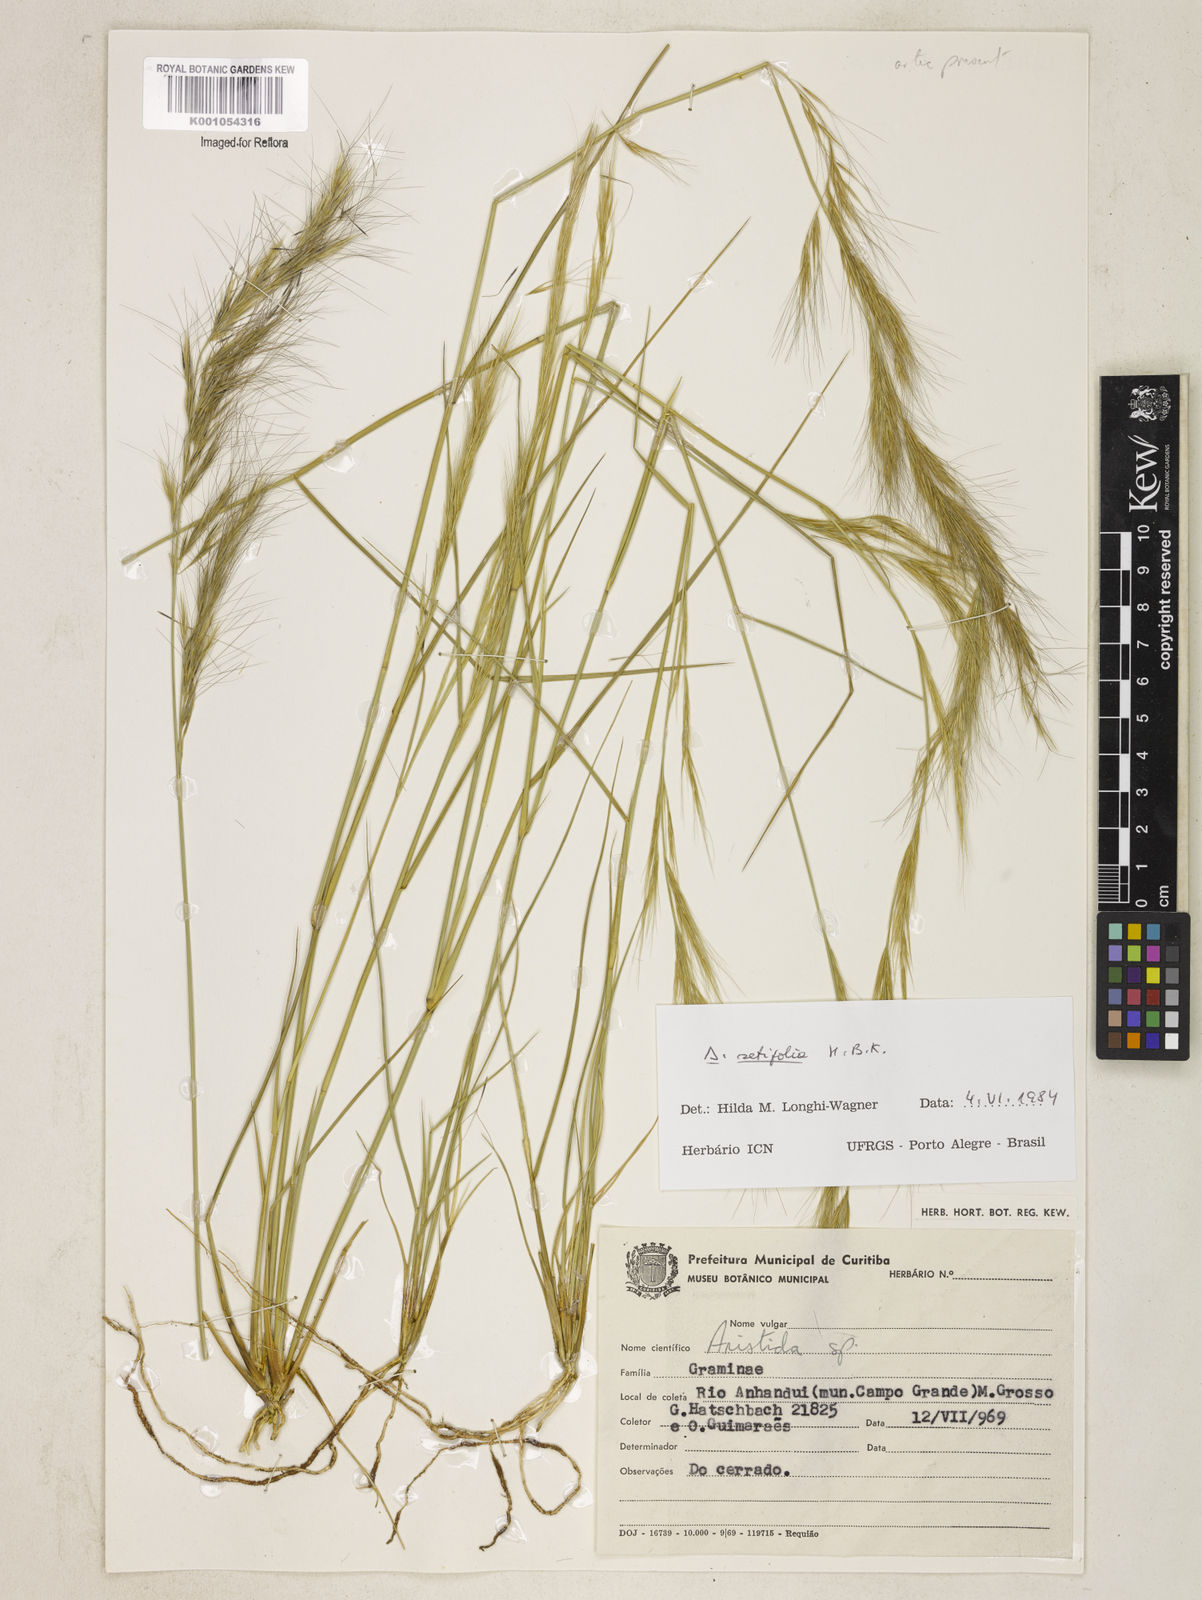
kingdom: Plantae
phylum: Tracheophyta
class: Liliopsida
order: Poales
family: Poaceae
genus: Aristida
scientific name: Aristida setifolia
